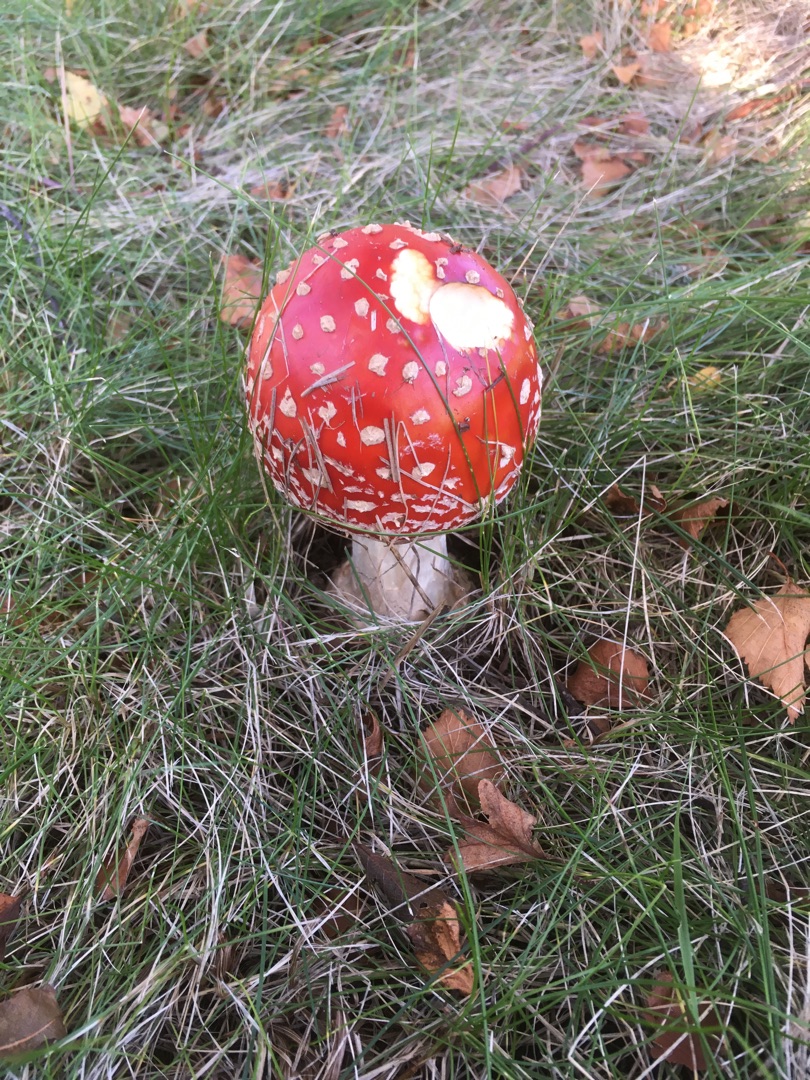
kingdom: Fungi
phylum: Basidiomycota
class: Agaricomycetes
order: Agaricales
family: Amanitaceae
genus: Amanita
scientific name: Amanita muscaria
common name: Rød fluesvamp
